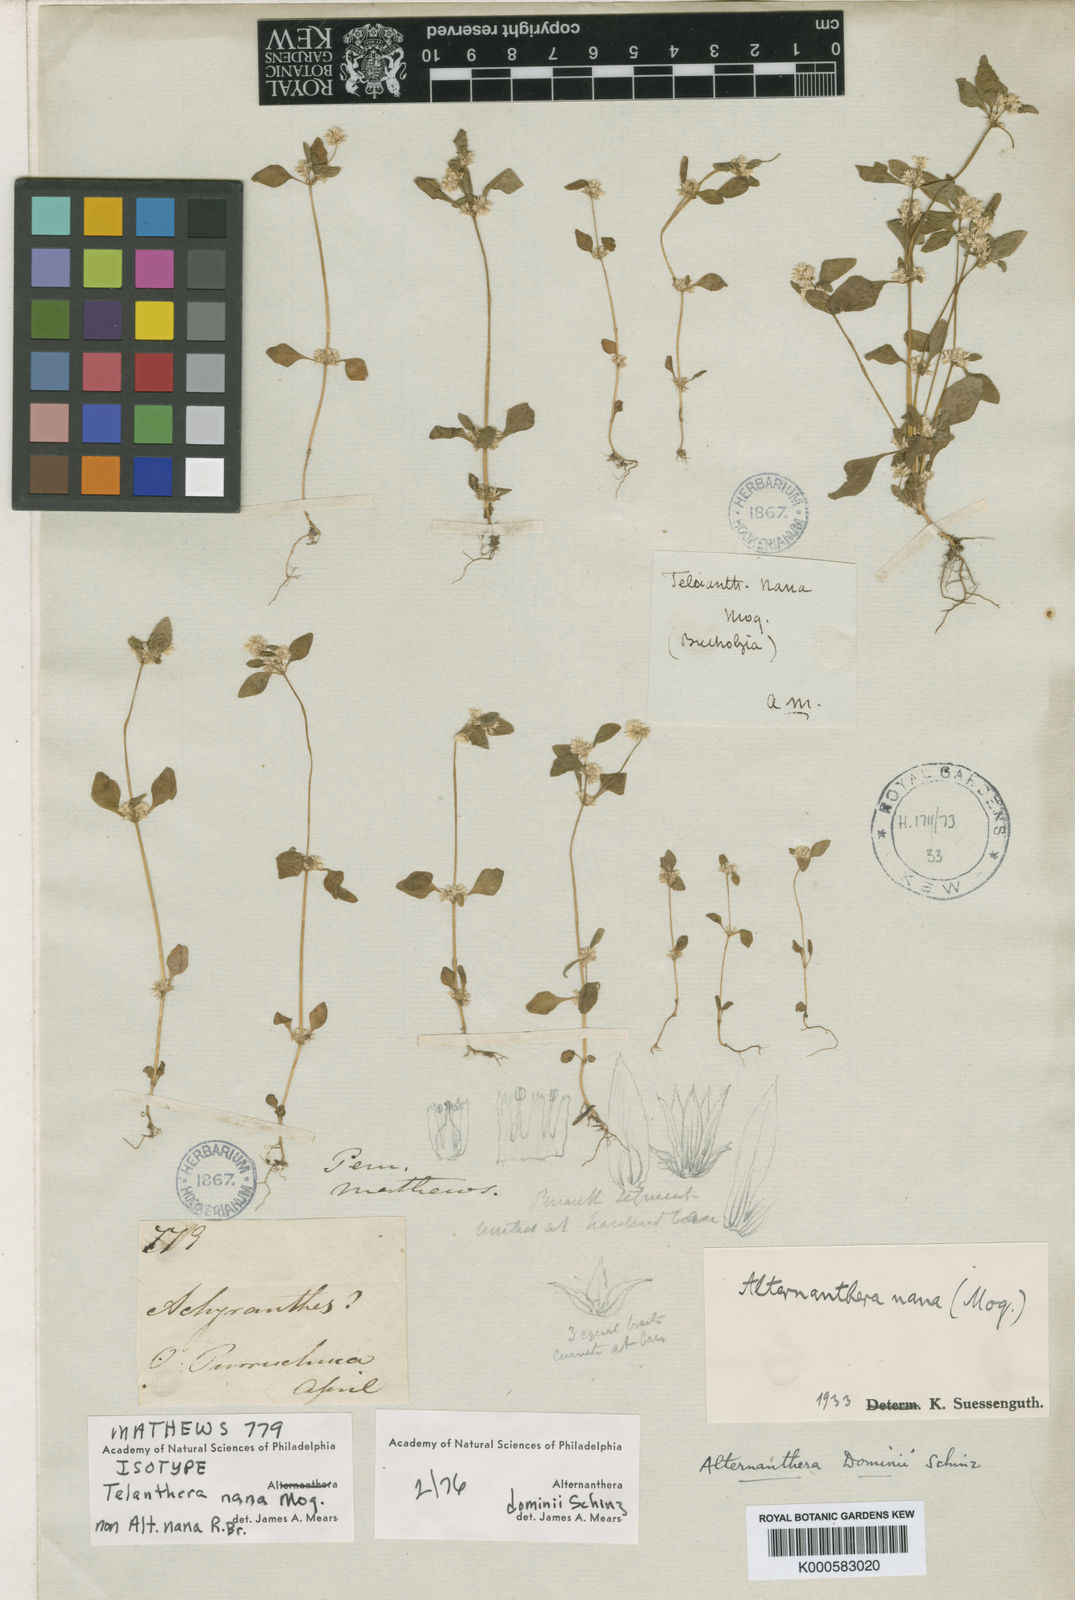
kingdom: Plantae
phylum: Tracheophyta
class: Magnoliopsida
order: Caryophyllales
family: Amaranthaceae
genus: Alternanthera
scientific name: Alternanthera dominii
